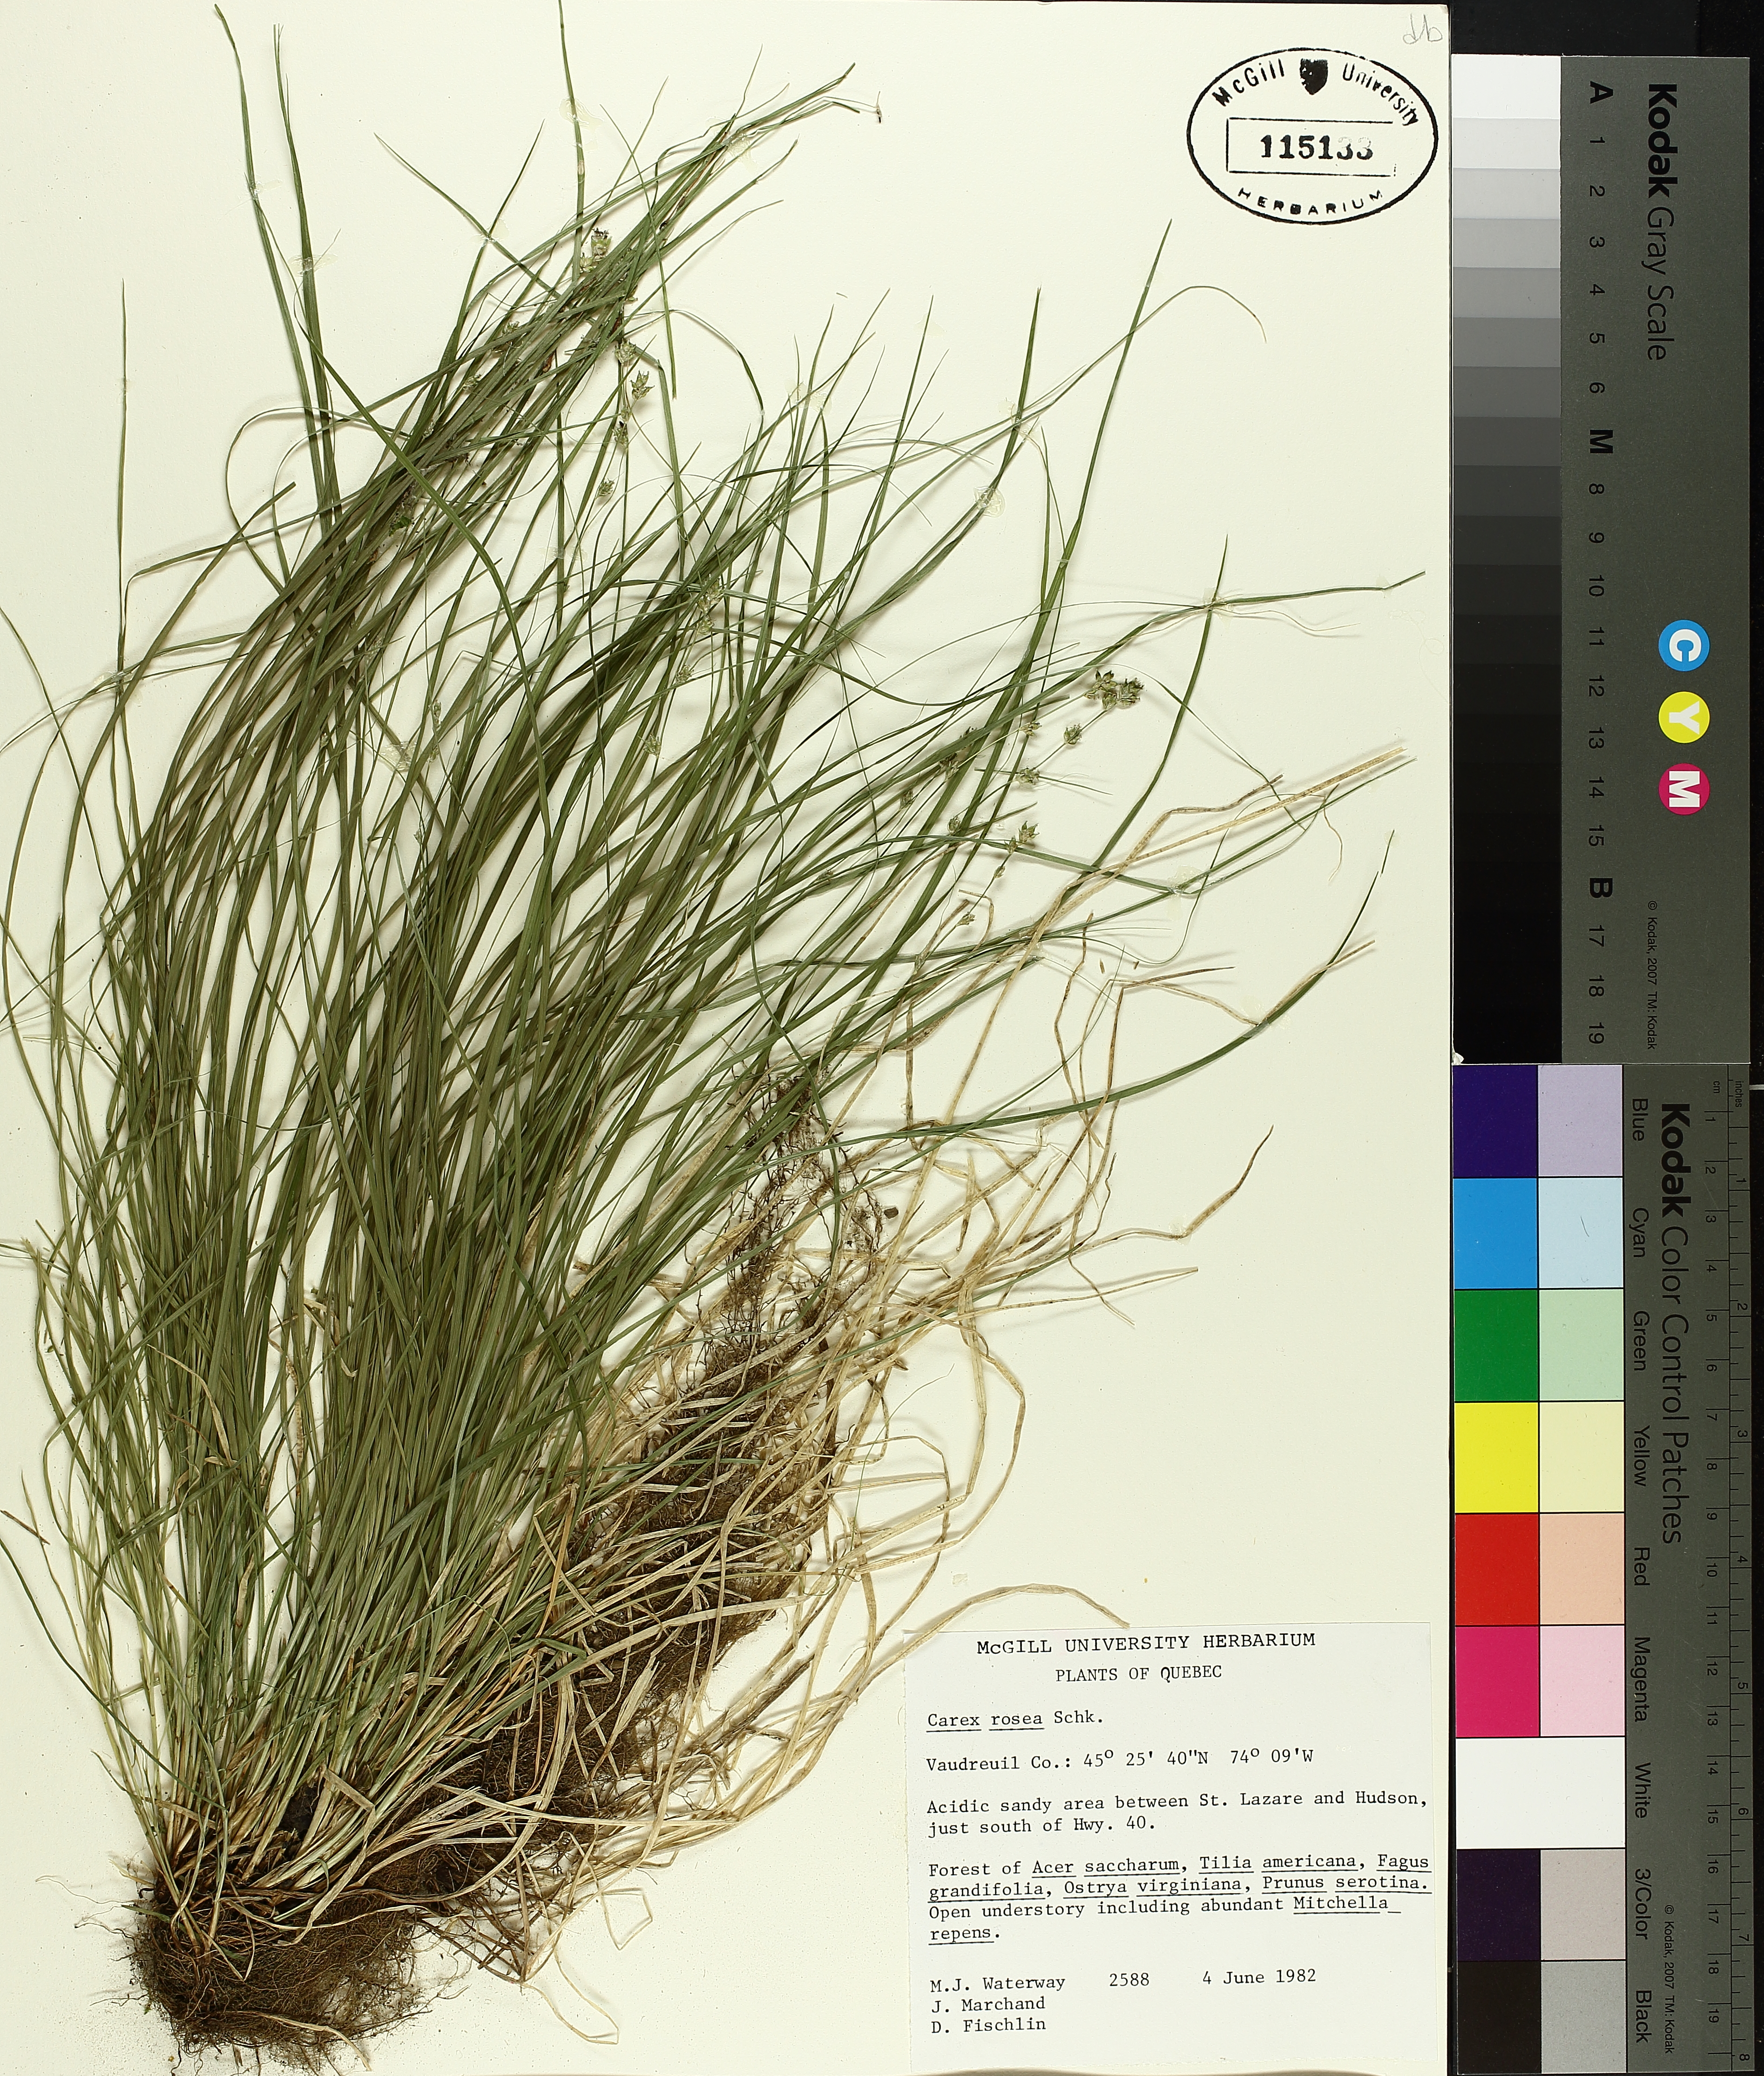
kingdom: Plantae
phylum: Tracheophyta
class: Liliopsida
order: Poales
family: Cyperaceae
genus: Carex
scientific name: Carex rosea
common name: Curly-styled wood sedge
